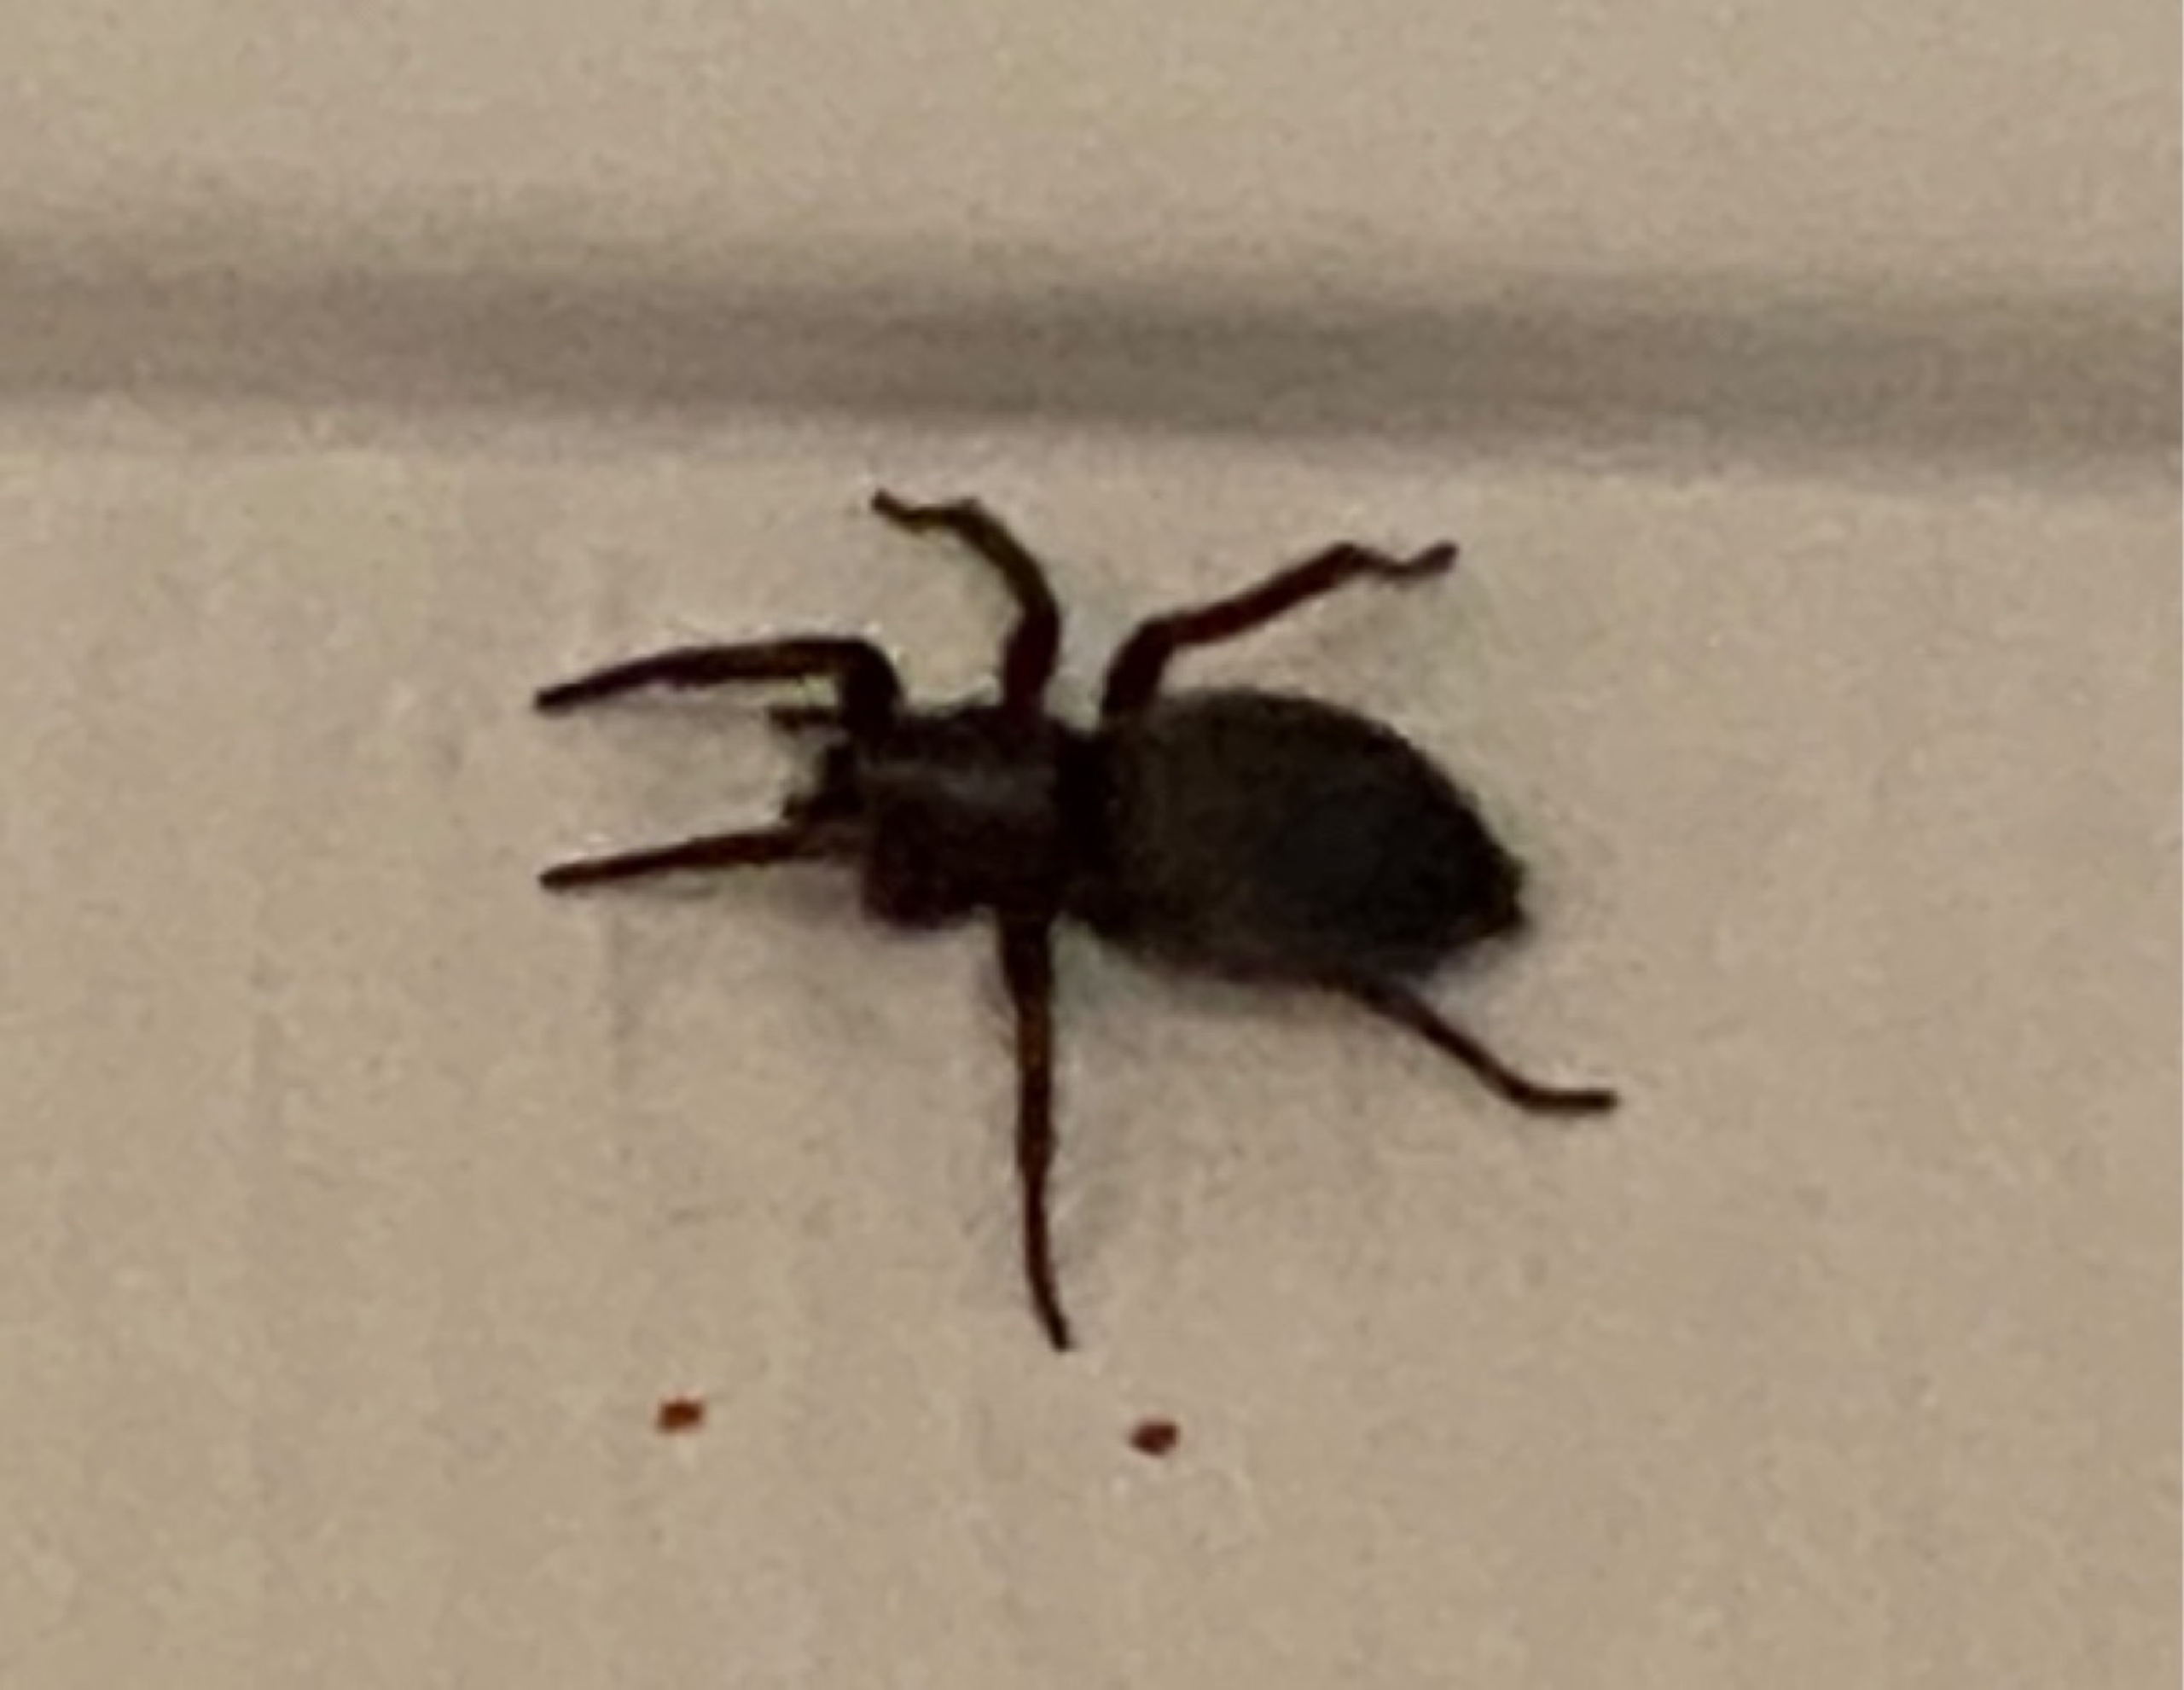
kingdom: Animalia
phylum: Arthropoda
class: Arachnida
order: Araneae
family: Gnaphosidae
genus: Scotophaeus
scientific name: Scotophaeus
